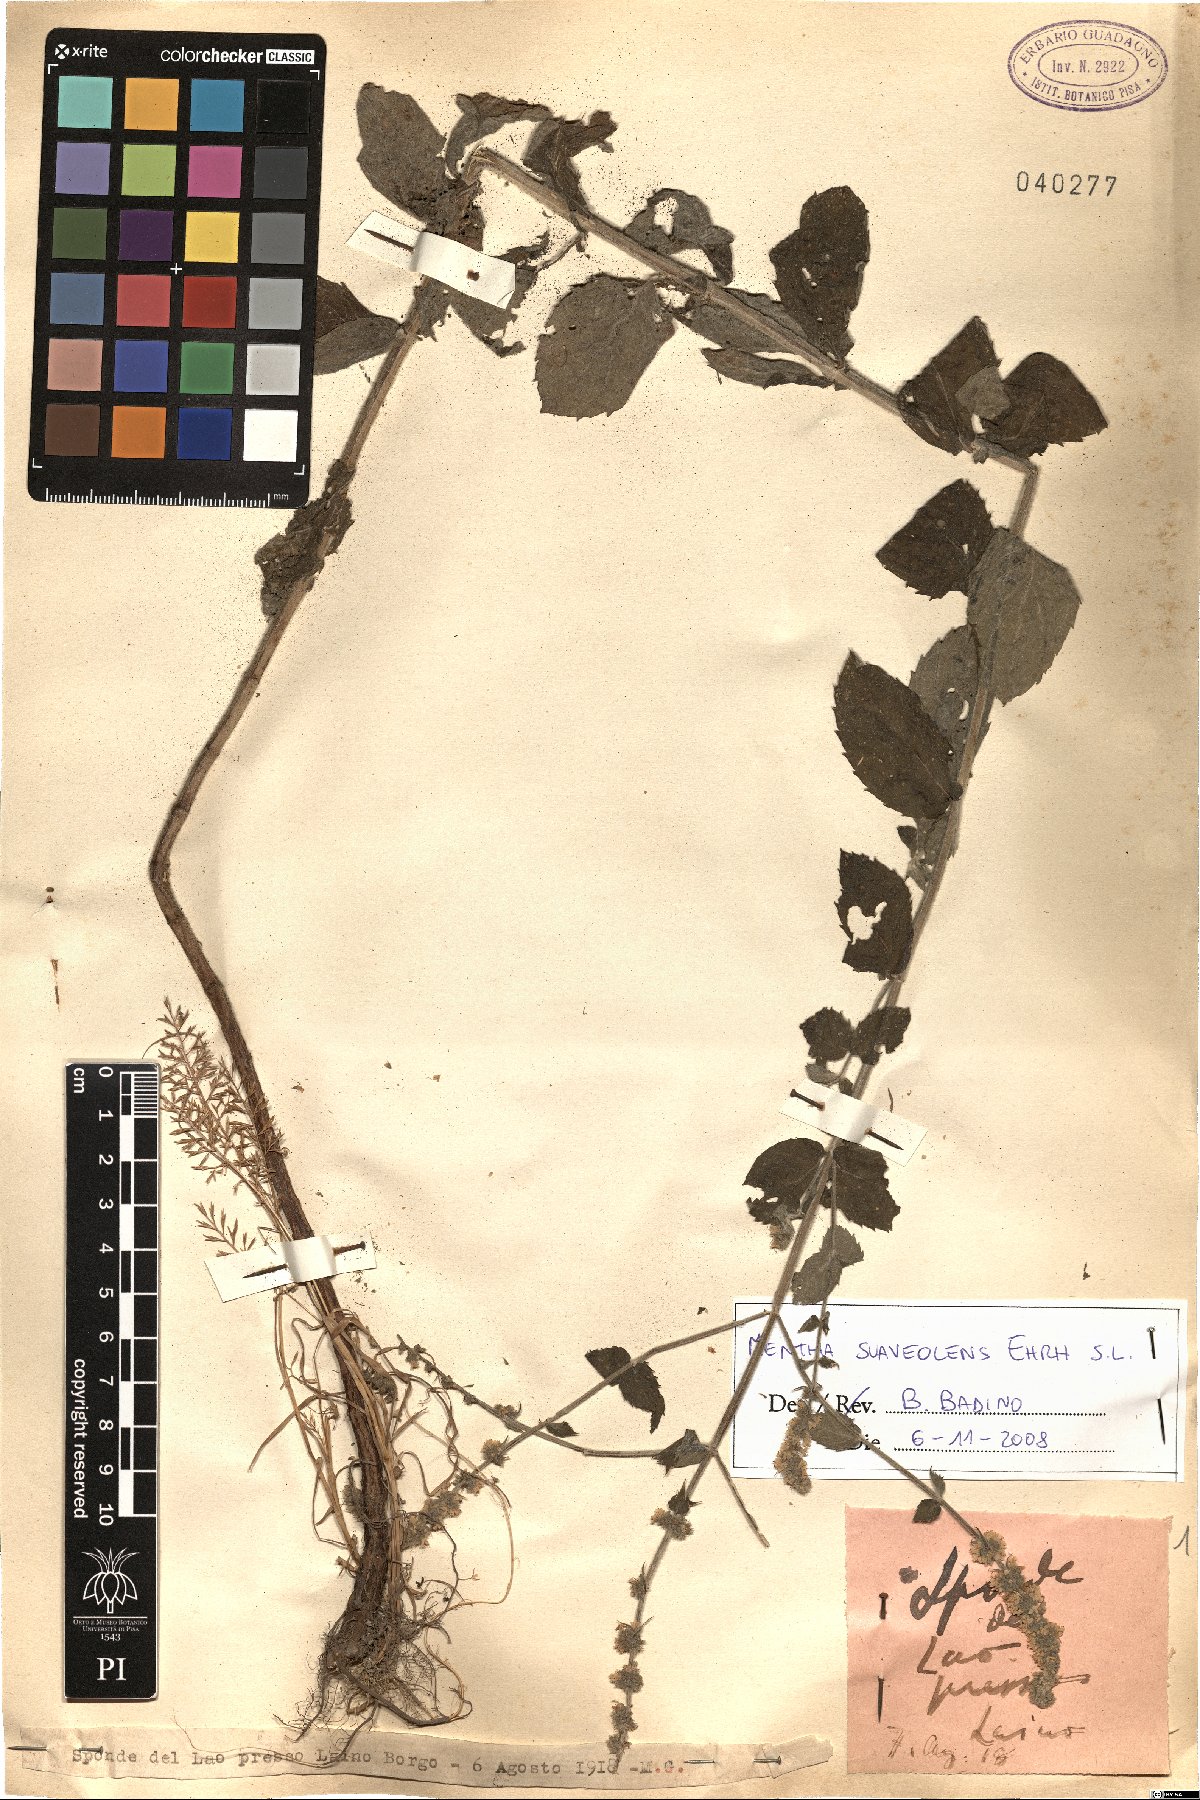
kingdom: Plantae
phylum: Tracheophyta
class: Magnoliopsida
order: Lamiales
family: Lamiaceae
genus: Mentha
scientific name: Mentha suaveolens
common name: Apple mint
